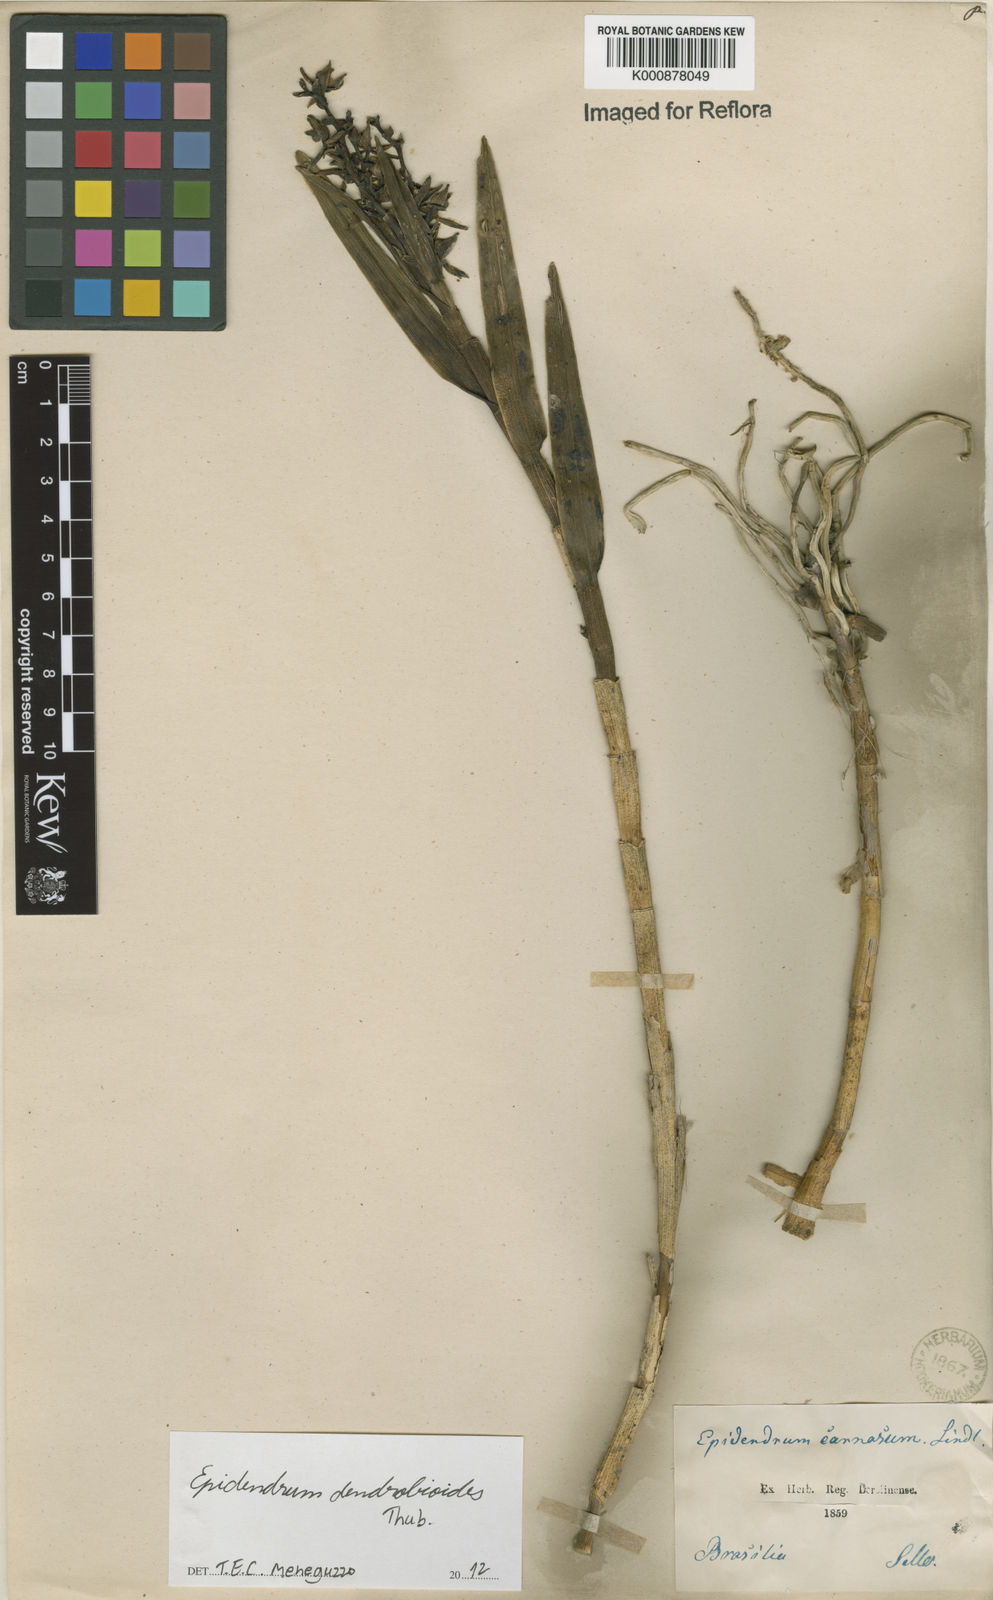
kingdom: Plantae
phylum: Tracheophyta
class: Liliopsida
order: Asparagales
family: Orchidaceae
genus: Epidendrum
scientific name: Epidendrum dendrobioides
